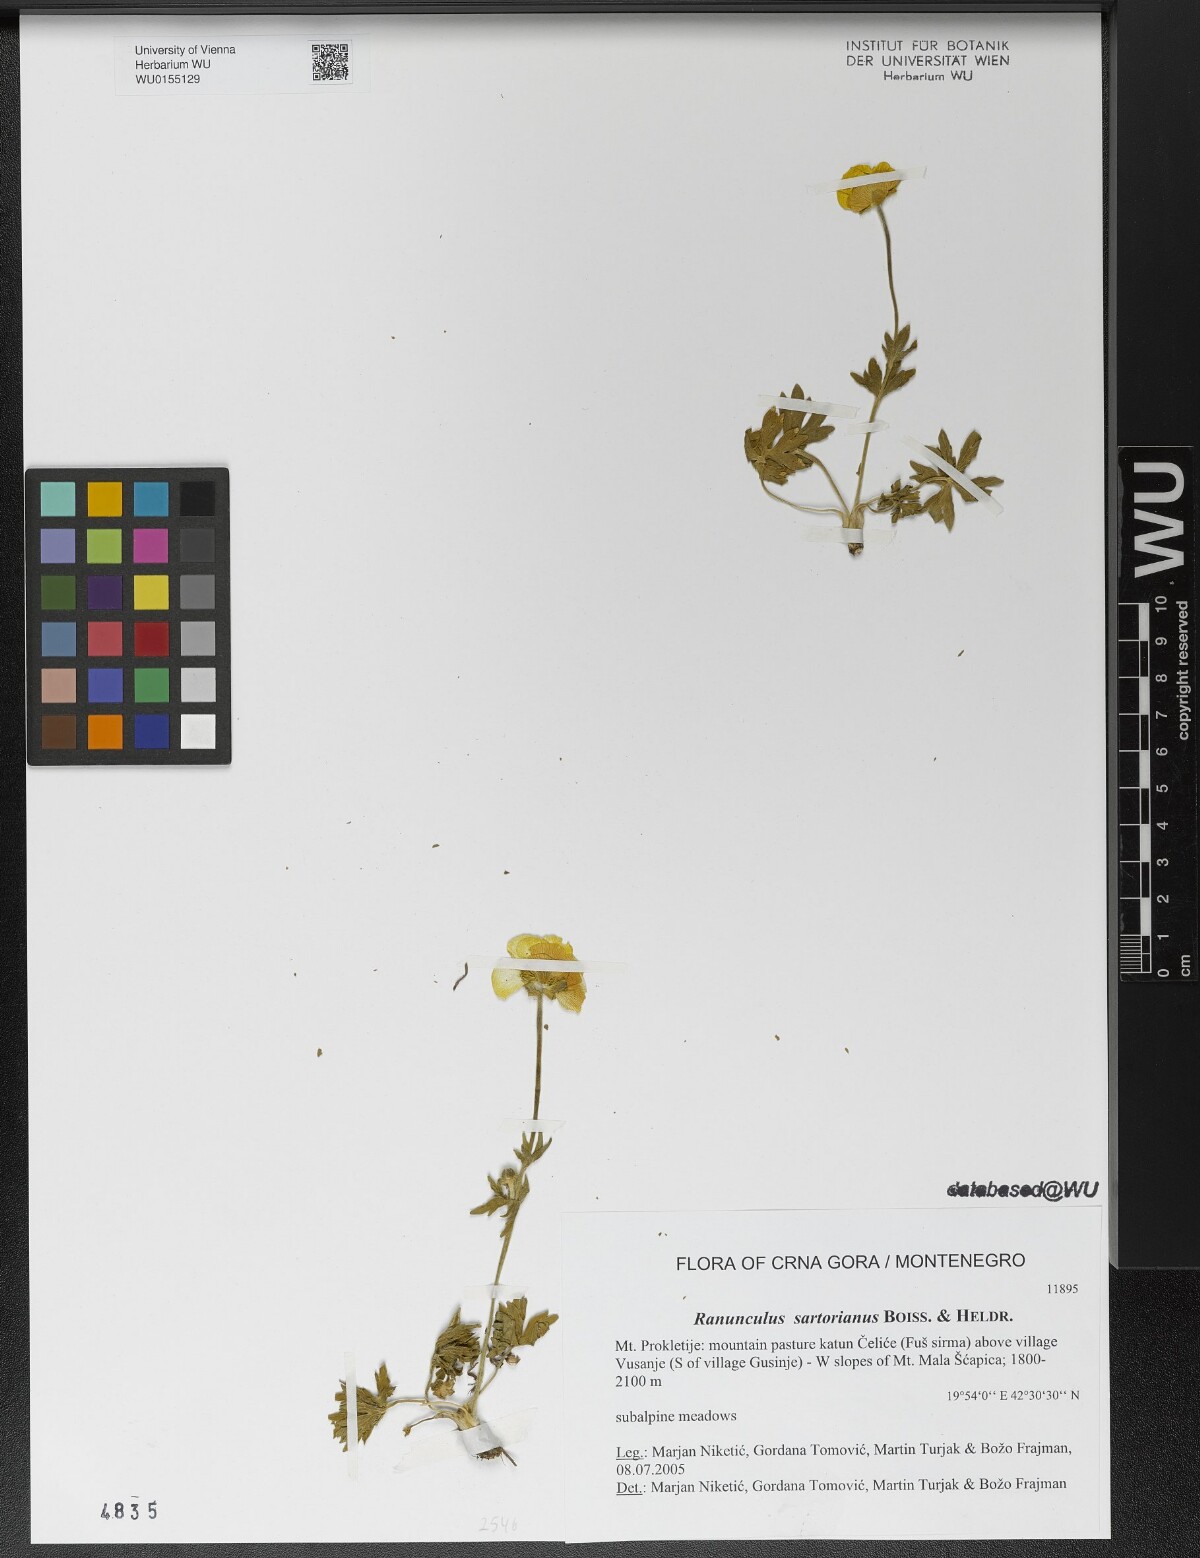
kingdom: Plantae
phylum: Tracheophyta
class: Magnoliopsida
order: Ranunculales
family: Ranunculaceae
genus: Ranunculus
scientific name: Ranunculus sartorianus
